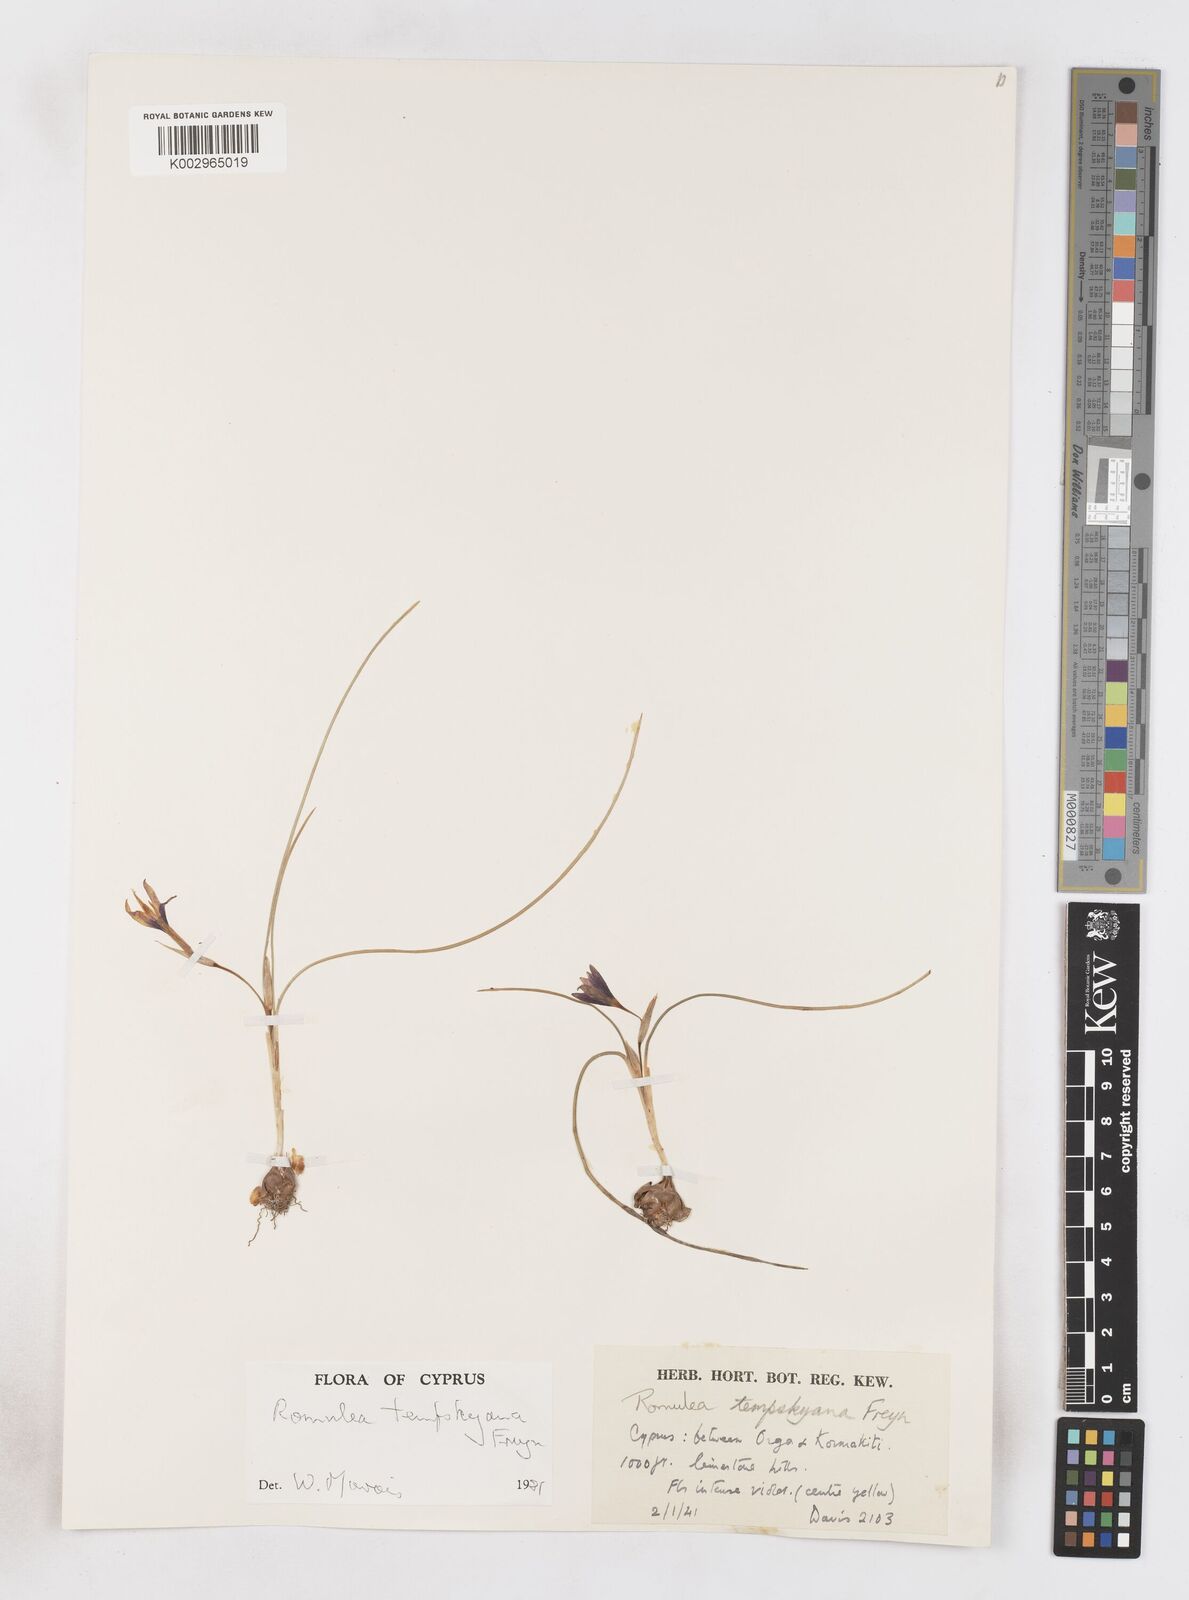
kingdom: Plantae
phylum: Tracheophyta
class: Liliopsida
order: Asparagales
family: Iridaceae
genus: Romulea
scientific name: Romulea tempskyana
